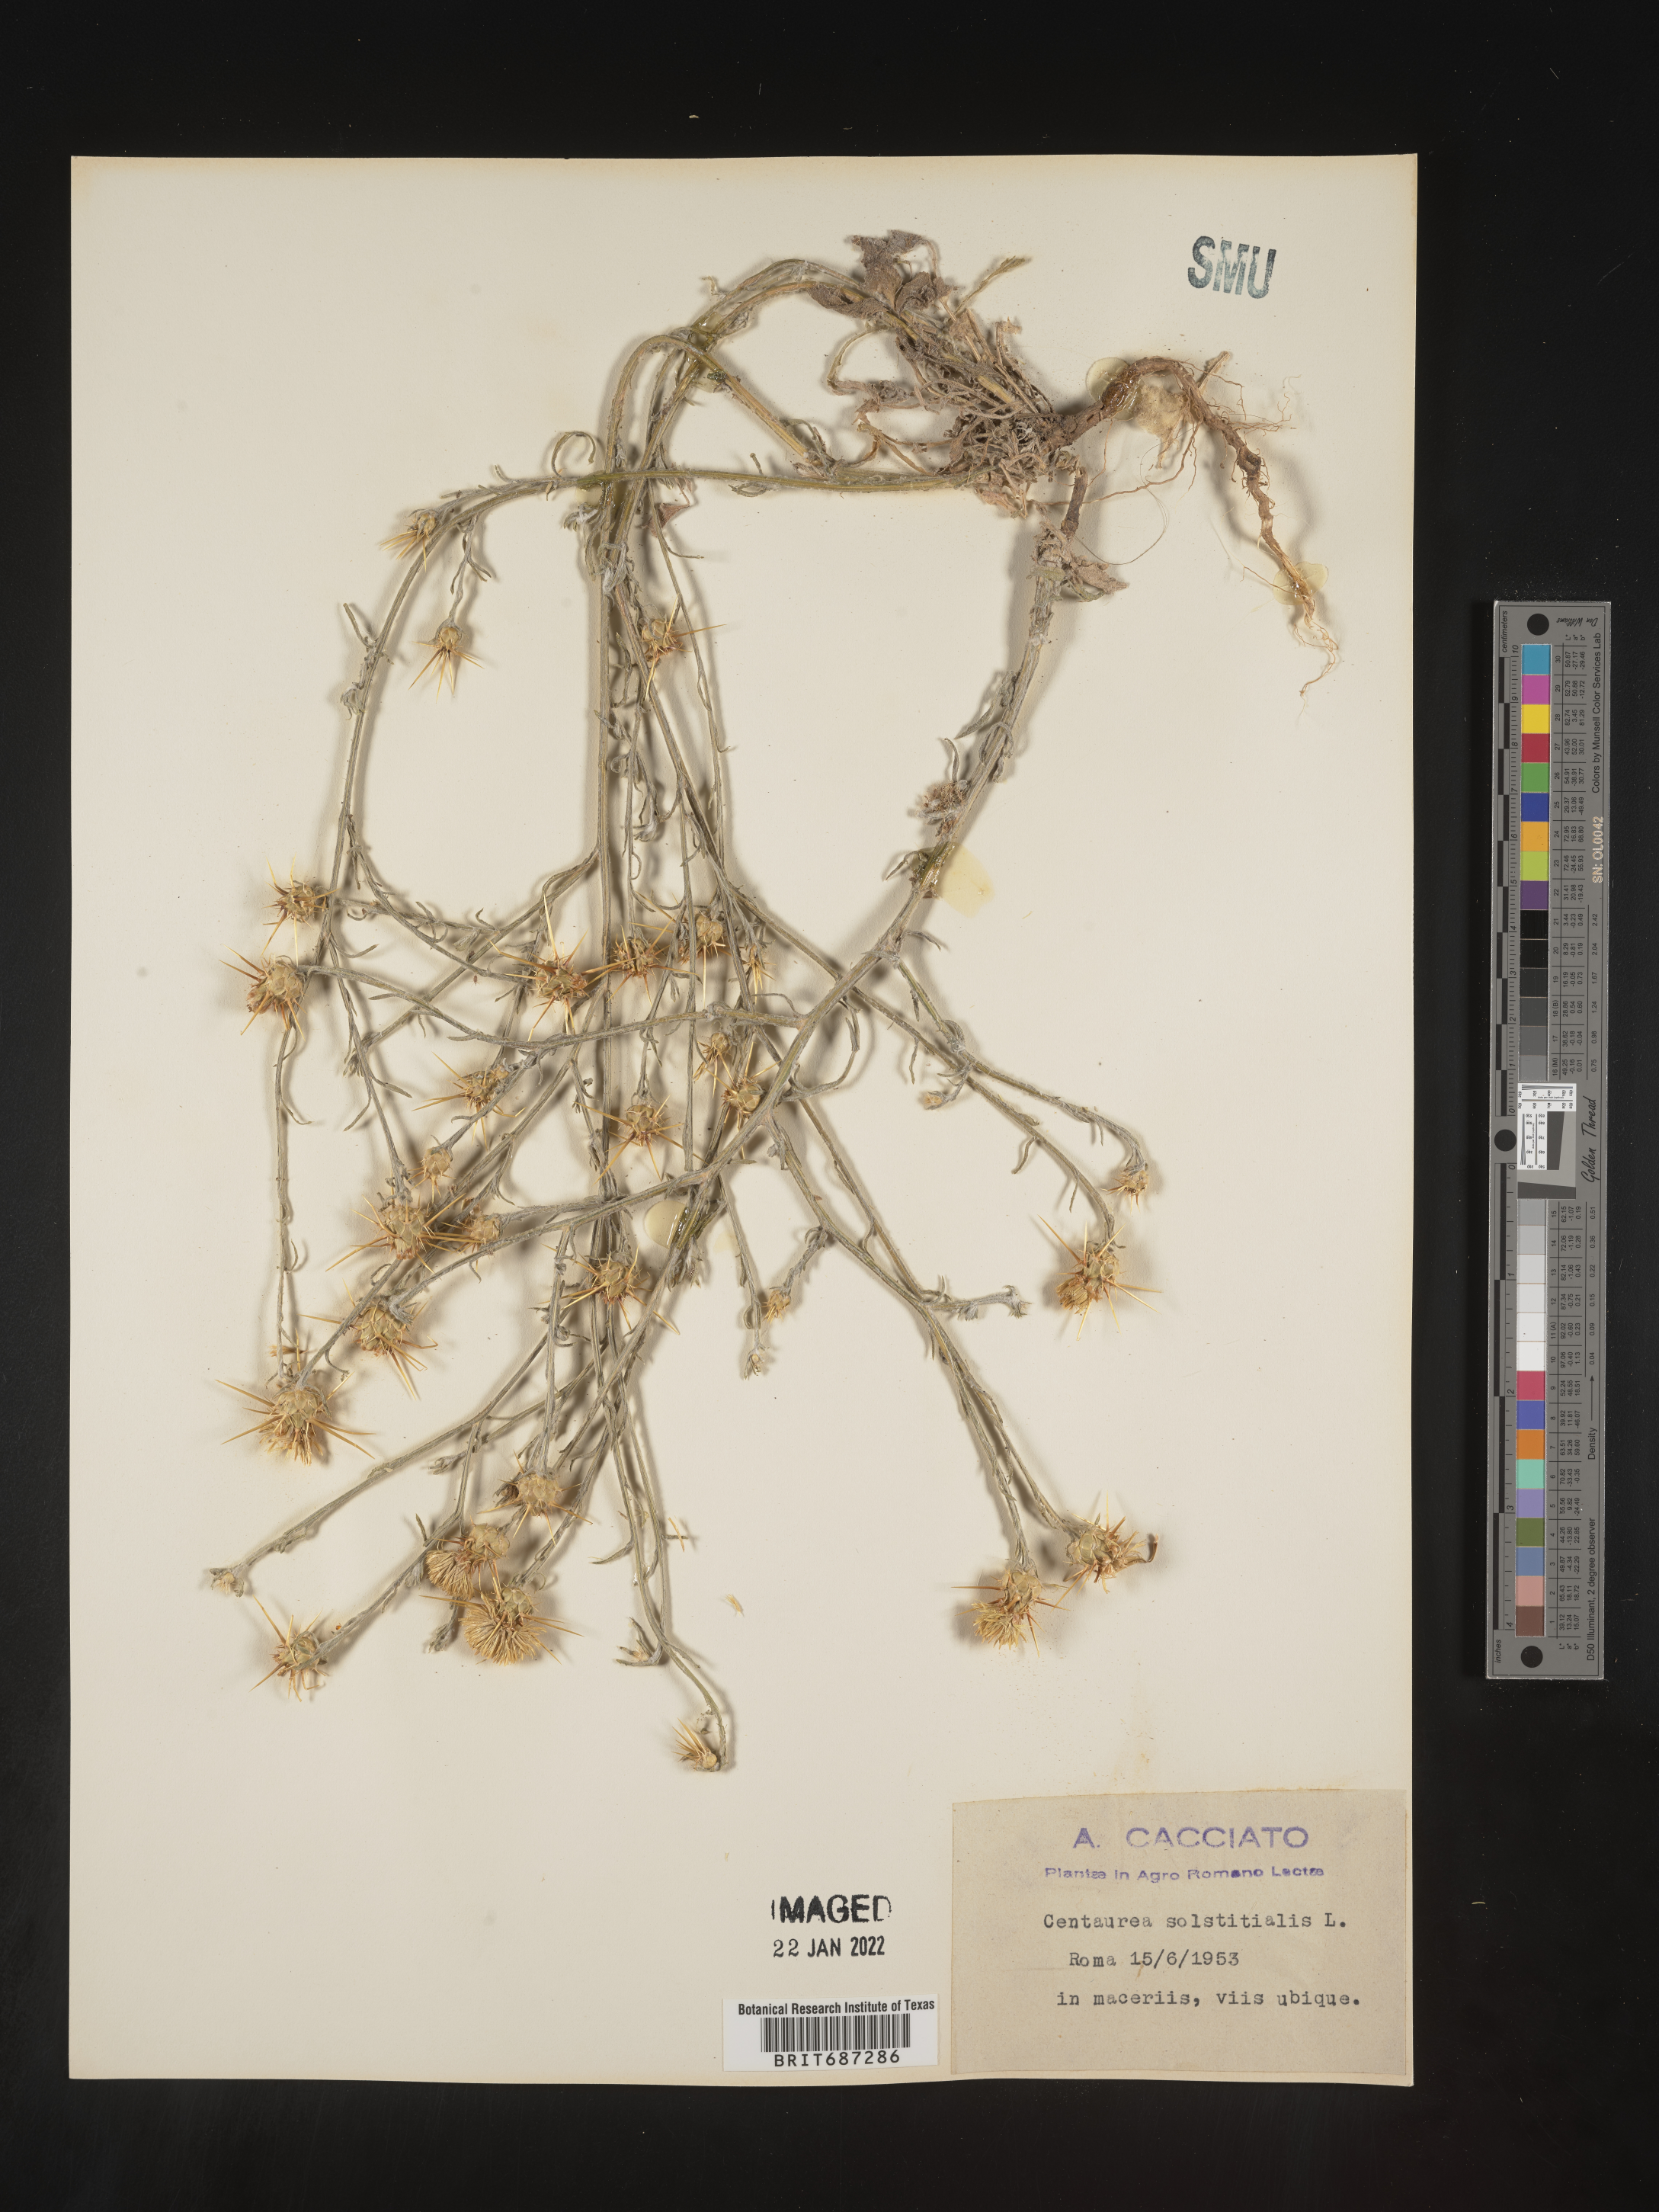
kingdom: Plantae
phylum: Tracheophyta
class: Magnoliopsida
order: Asterales
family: Asteraceae
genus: Centaurea
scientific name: Centaurea
